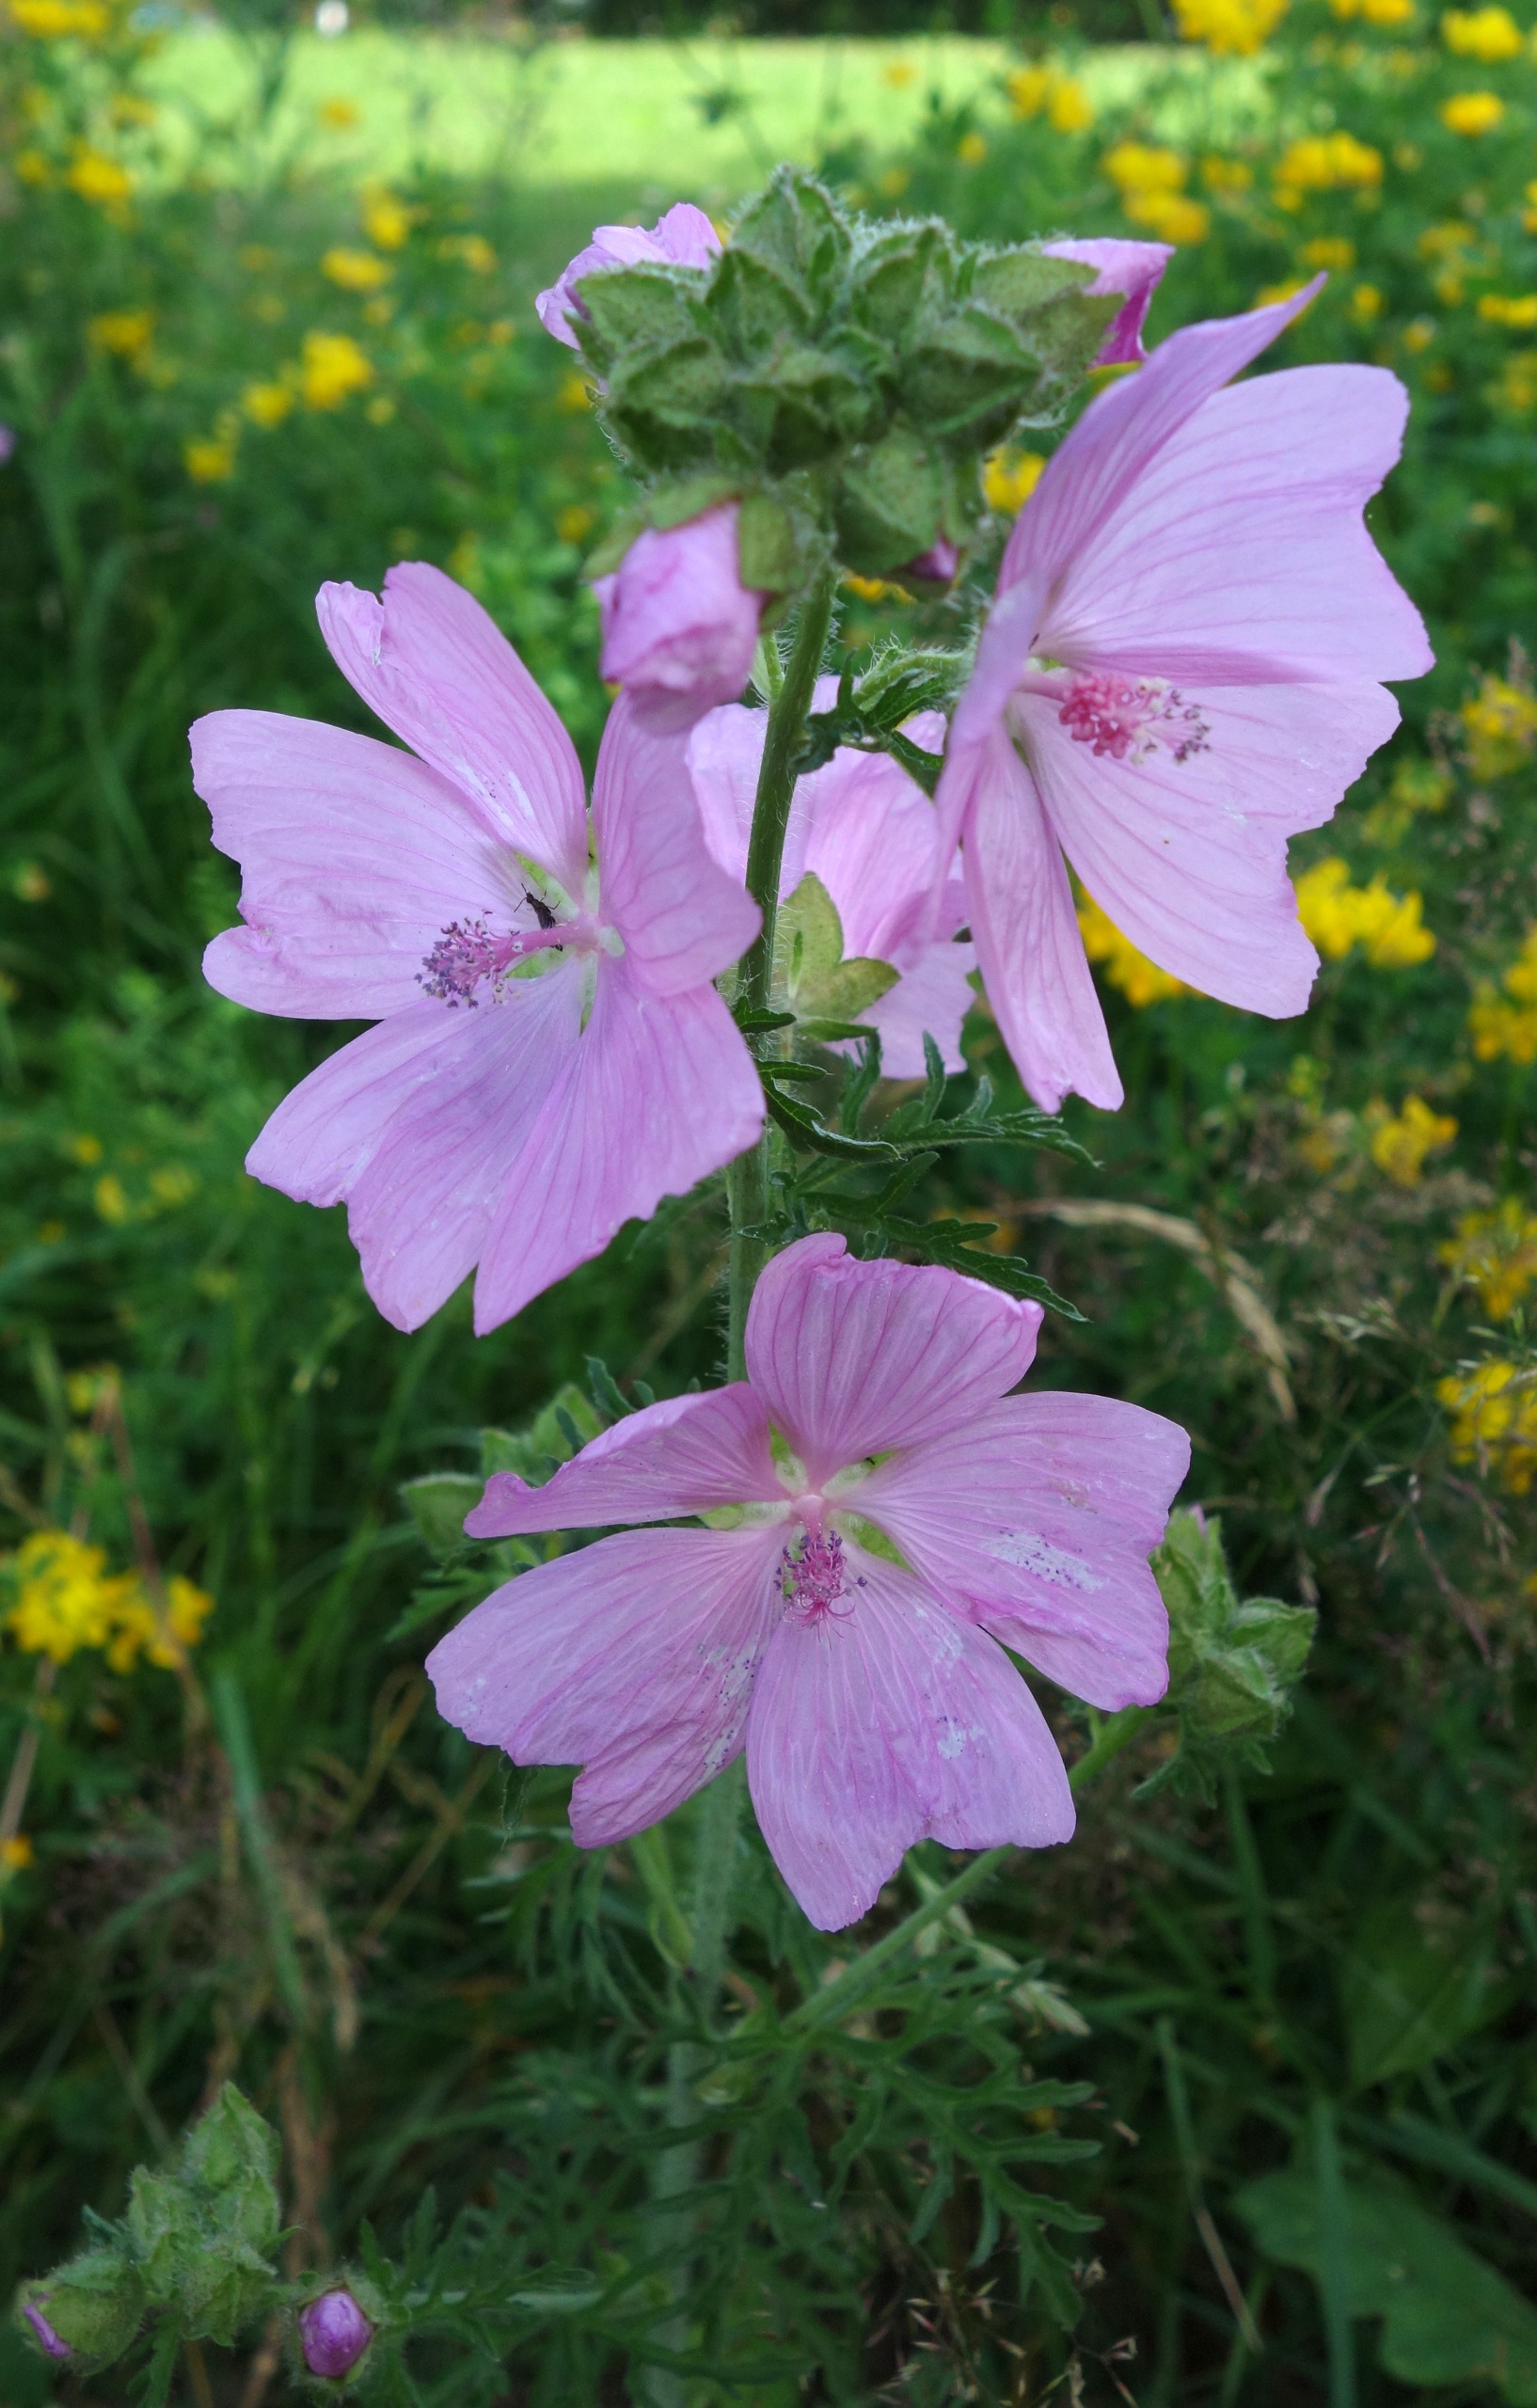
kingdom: Plantae
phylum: Tracheophyta
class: Magnoliopsida
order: Malvales
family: Malvaceae
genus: Malva
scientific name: Malva moschata
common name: Moskus-katost
